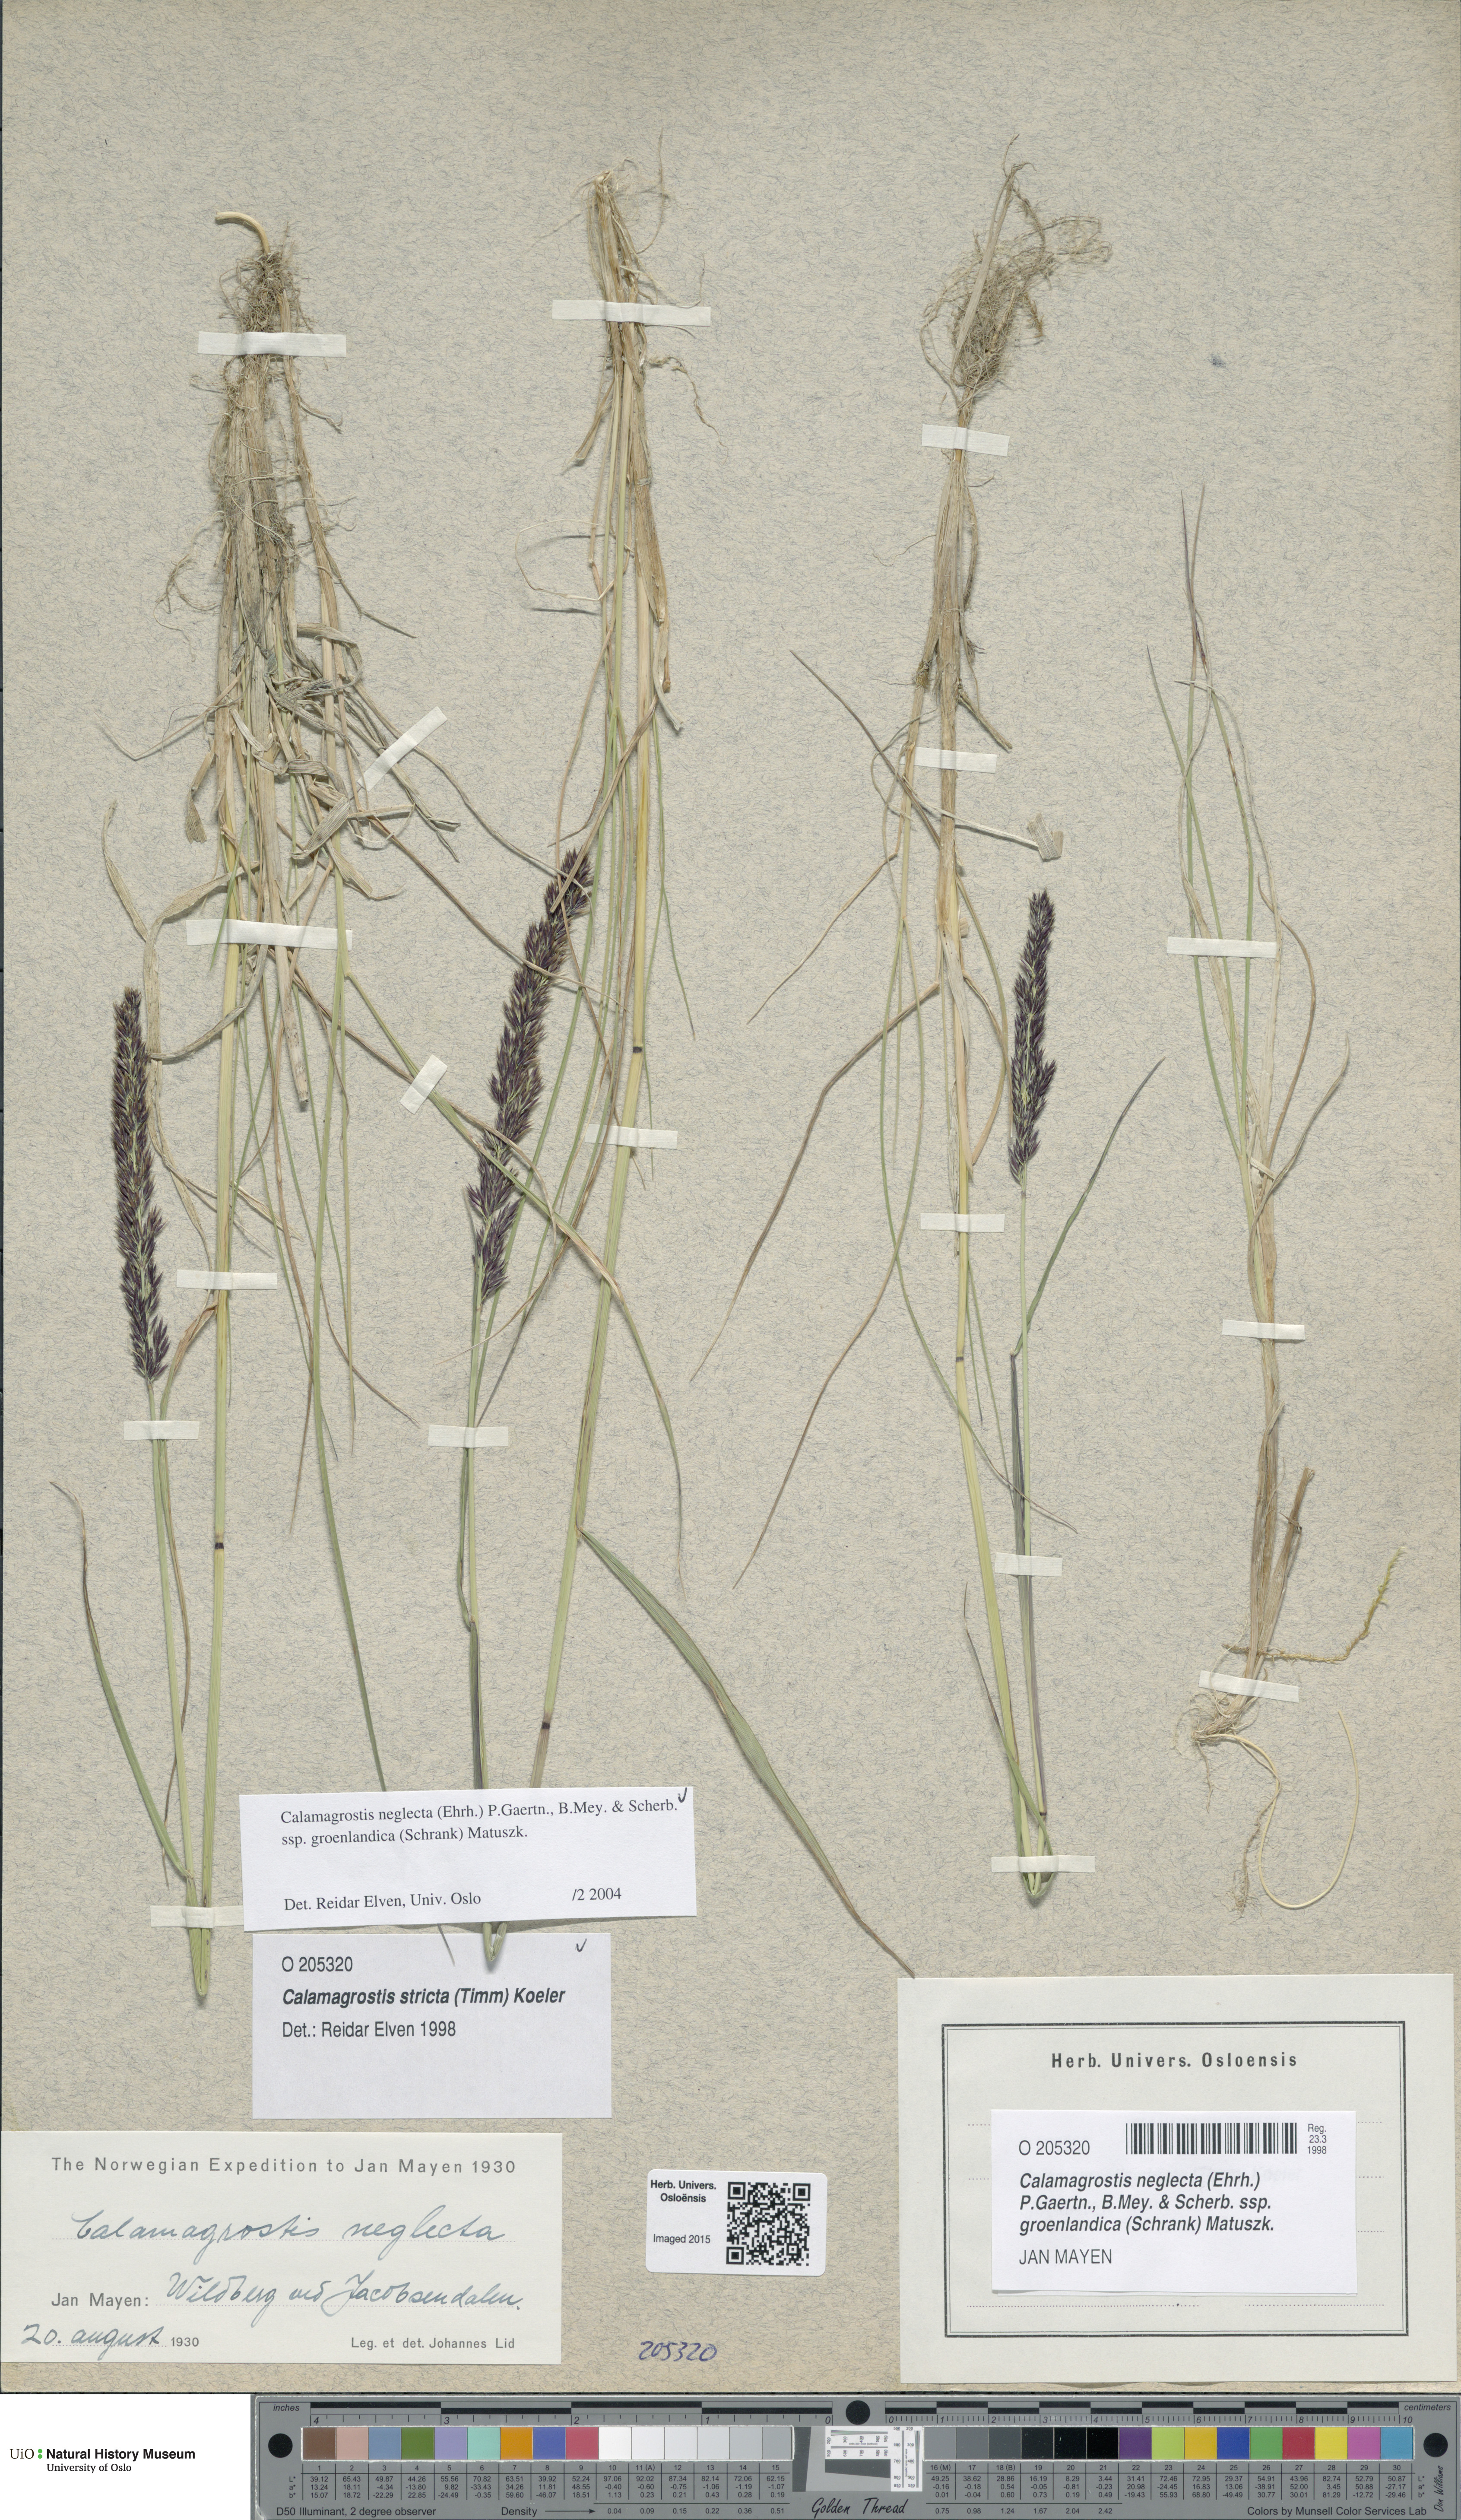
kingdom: Plantae
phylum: Tracheophyta
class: Liliopsida
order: Poales
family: Poaceae
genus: Calamagrostis
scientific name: Calamagrostis stricta
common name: Narrow small-reed
